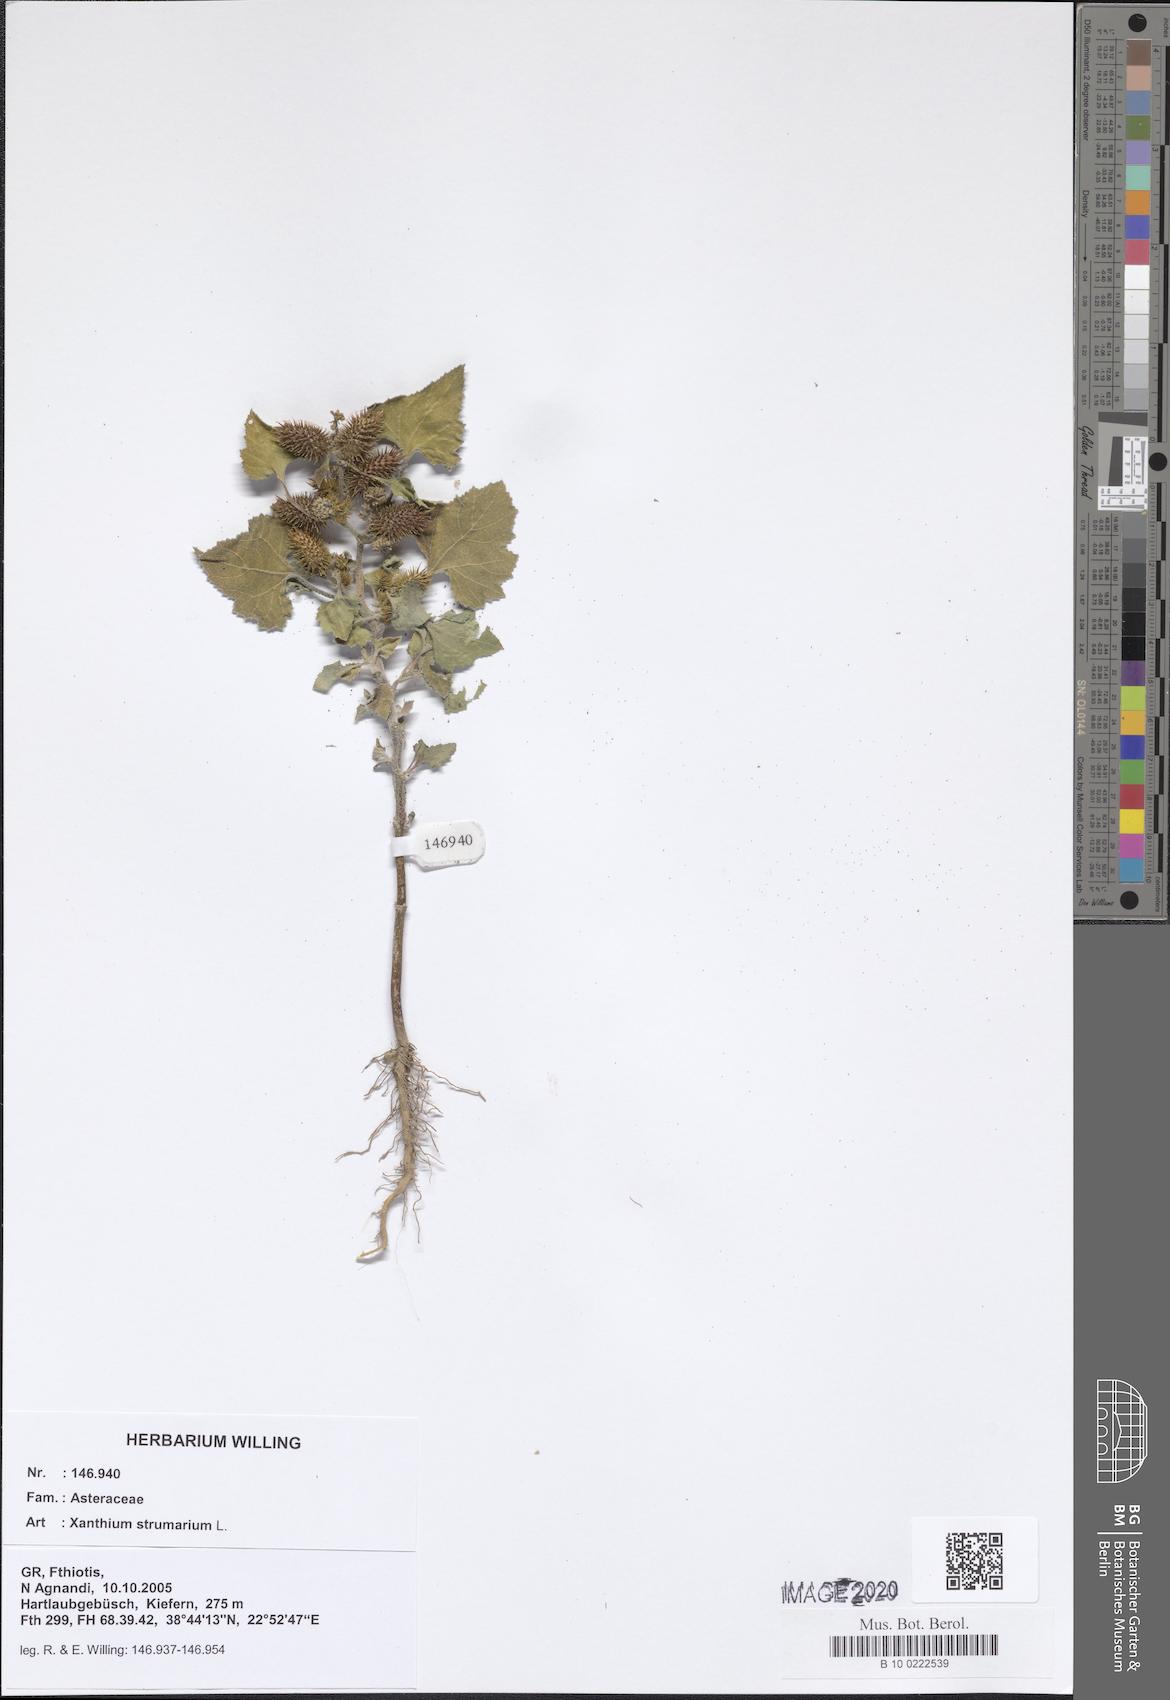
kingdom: Plantae
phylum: Tracheophyta
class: Magnoliopsida
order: Asterales
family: Asteraceae
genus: Xanthium
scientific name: Xanthium strumarium
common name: Rough cocklebur
